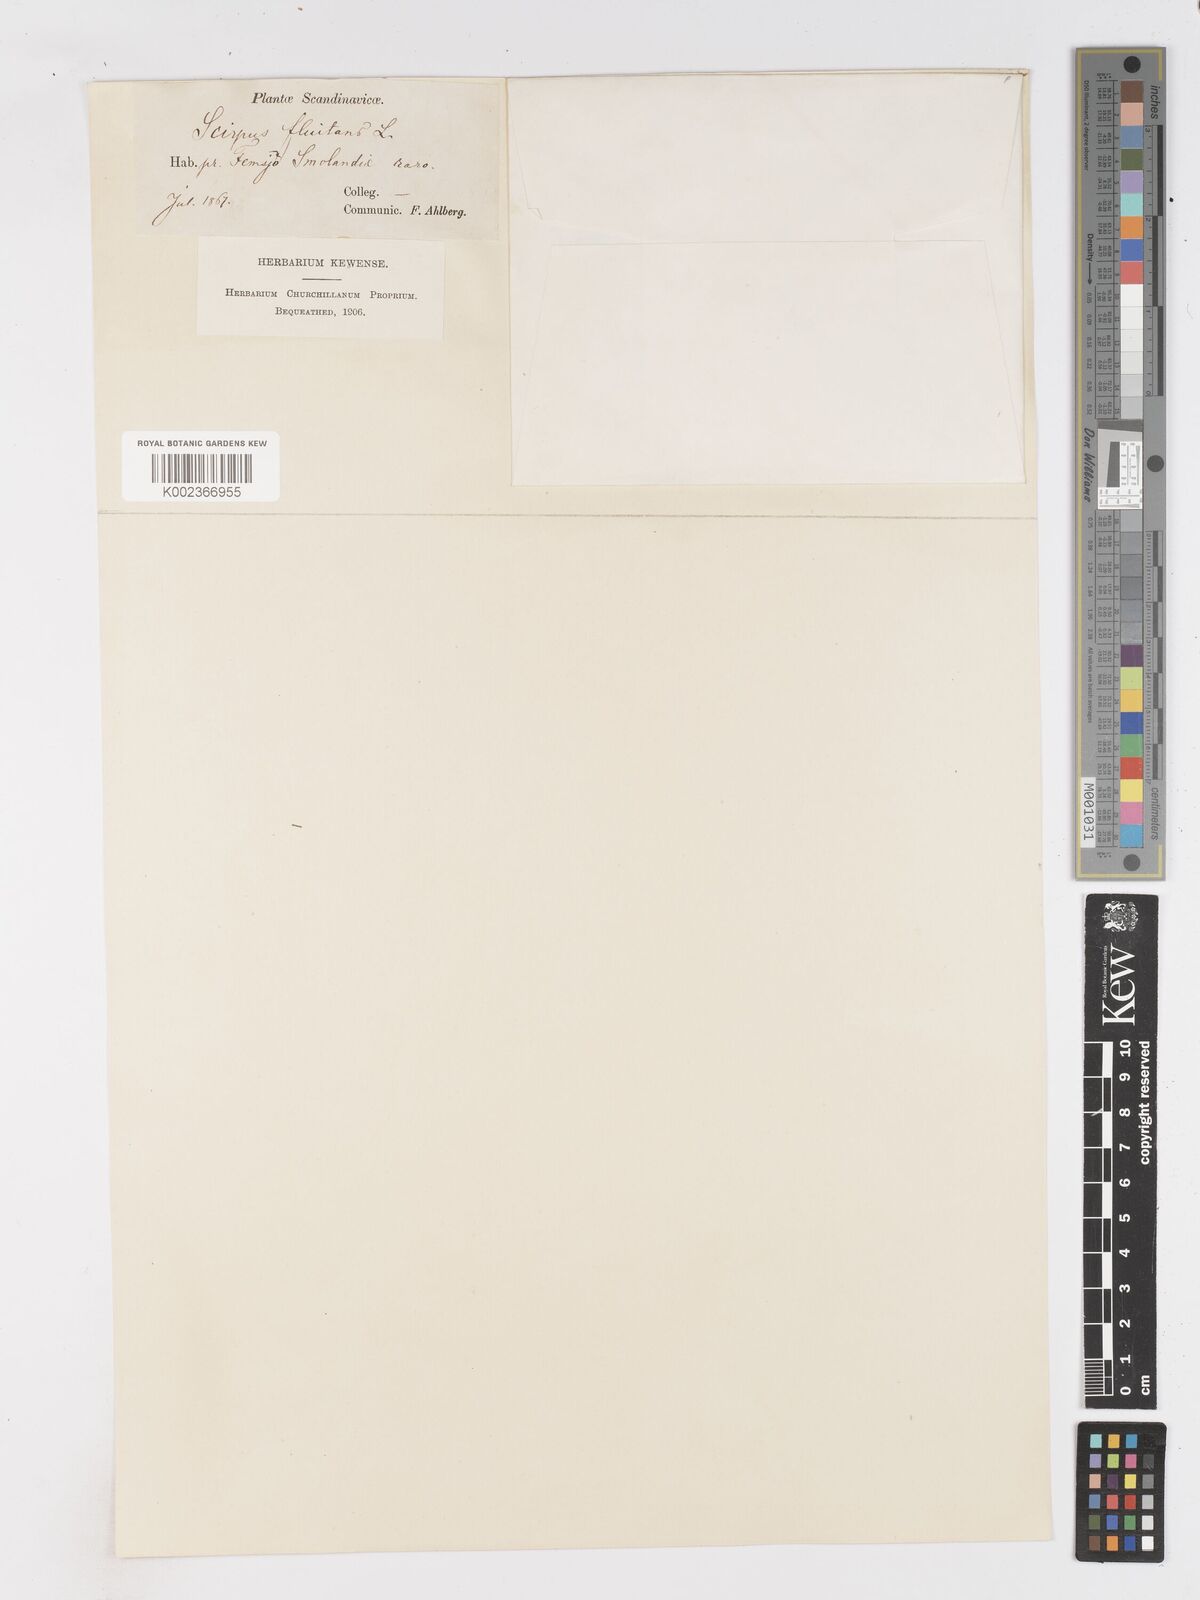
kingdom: Plantae
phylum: Tracheophyta
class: Liliopsida
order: Poales
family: Cyperaceae
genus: Isolepis
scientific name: Isolepis fluitans
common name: Floating club-rush
